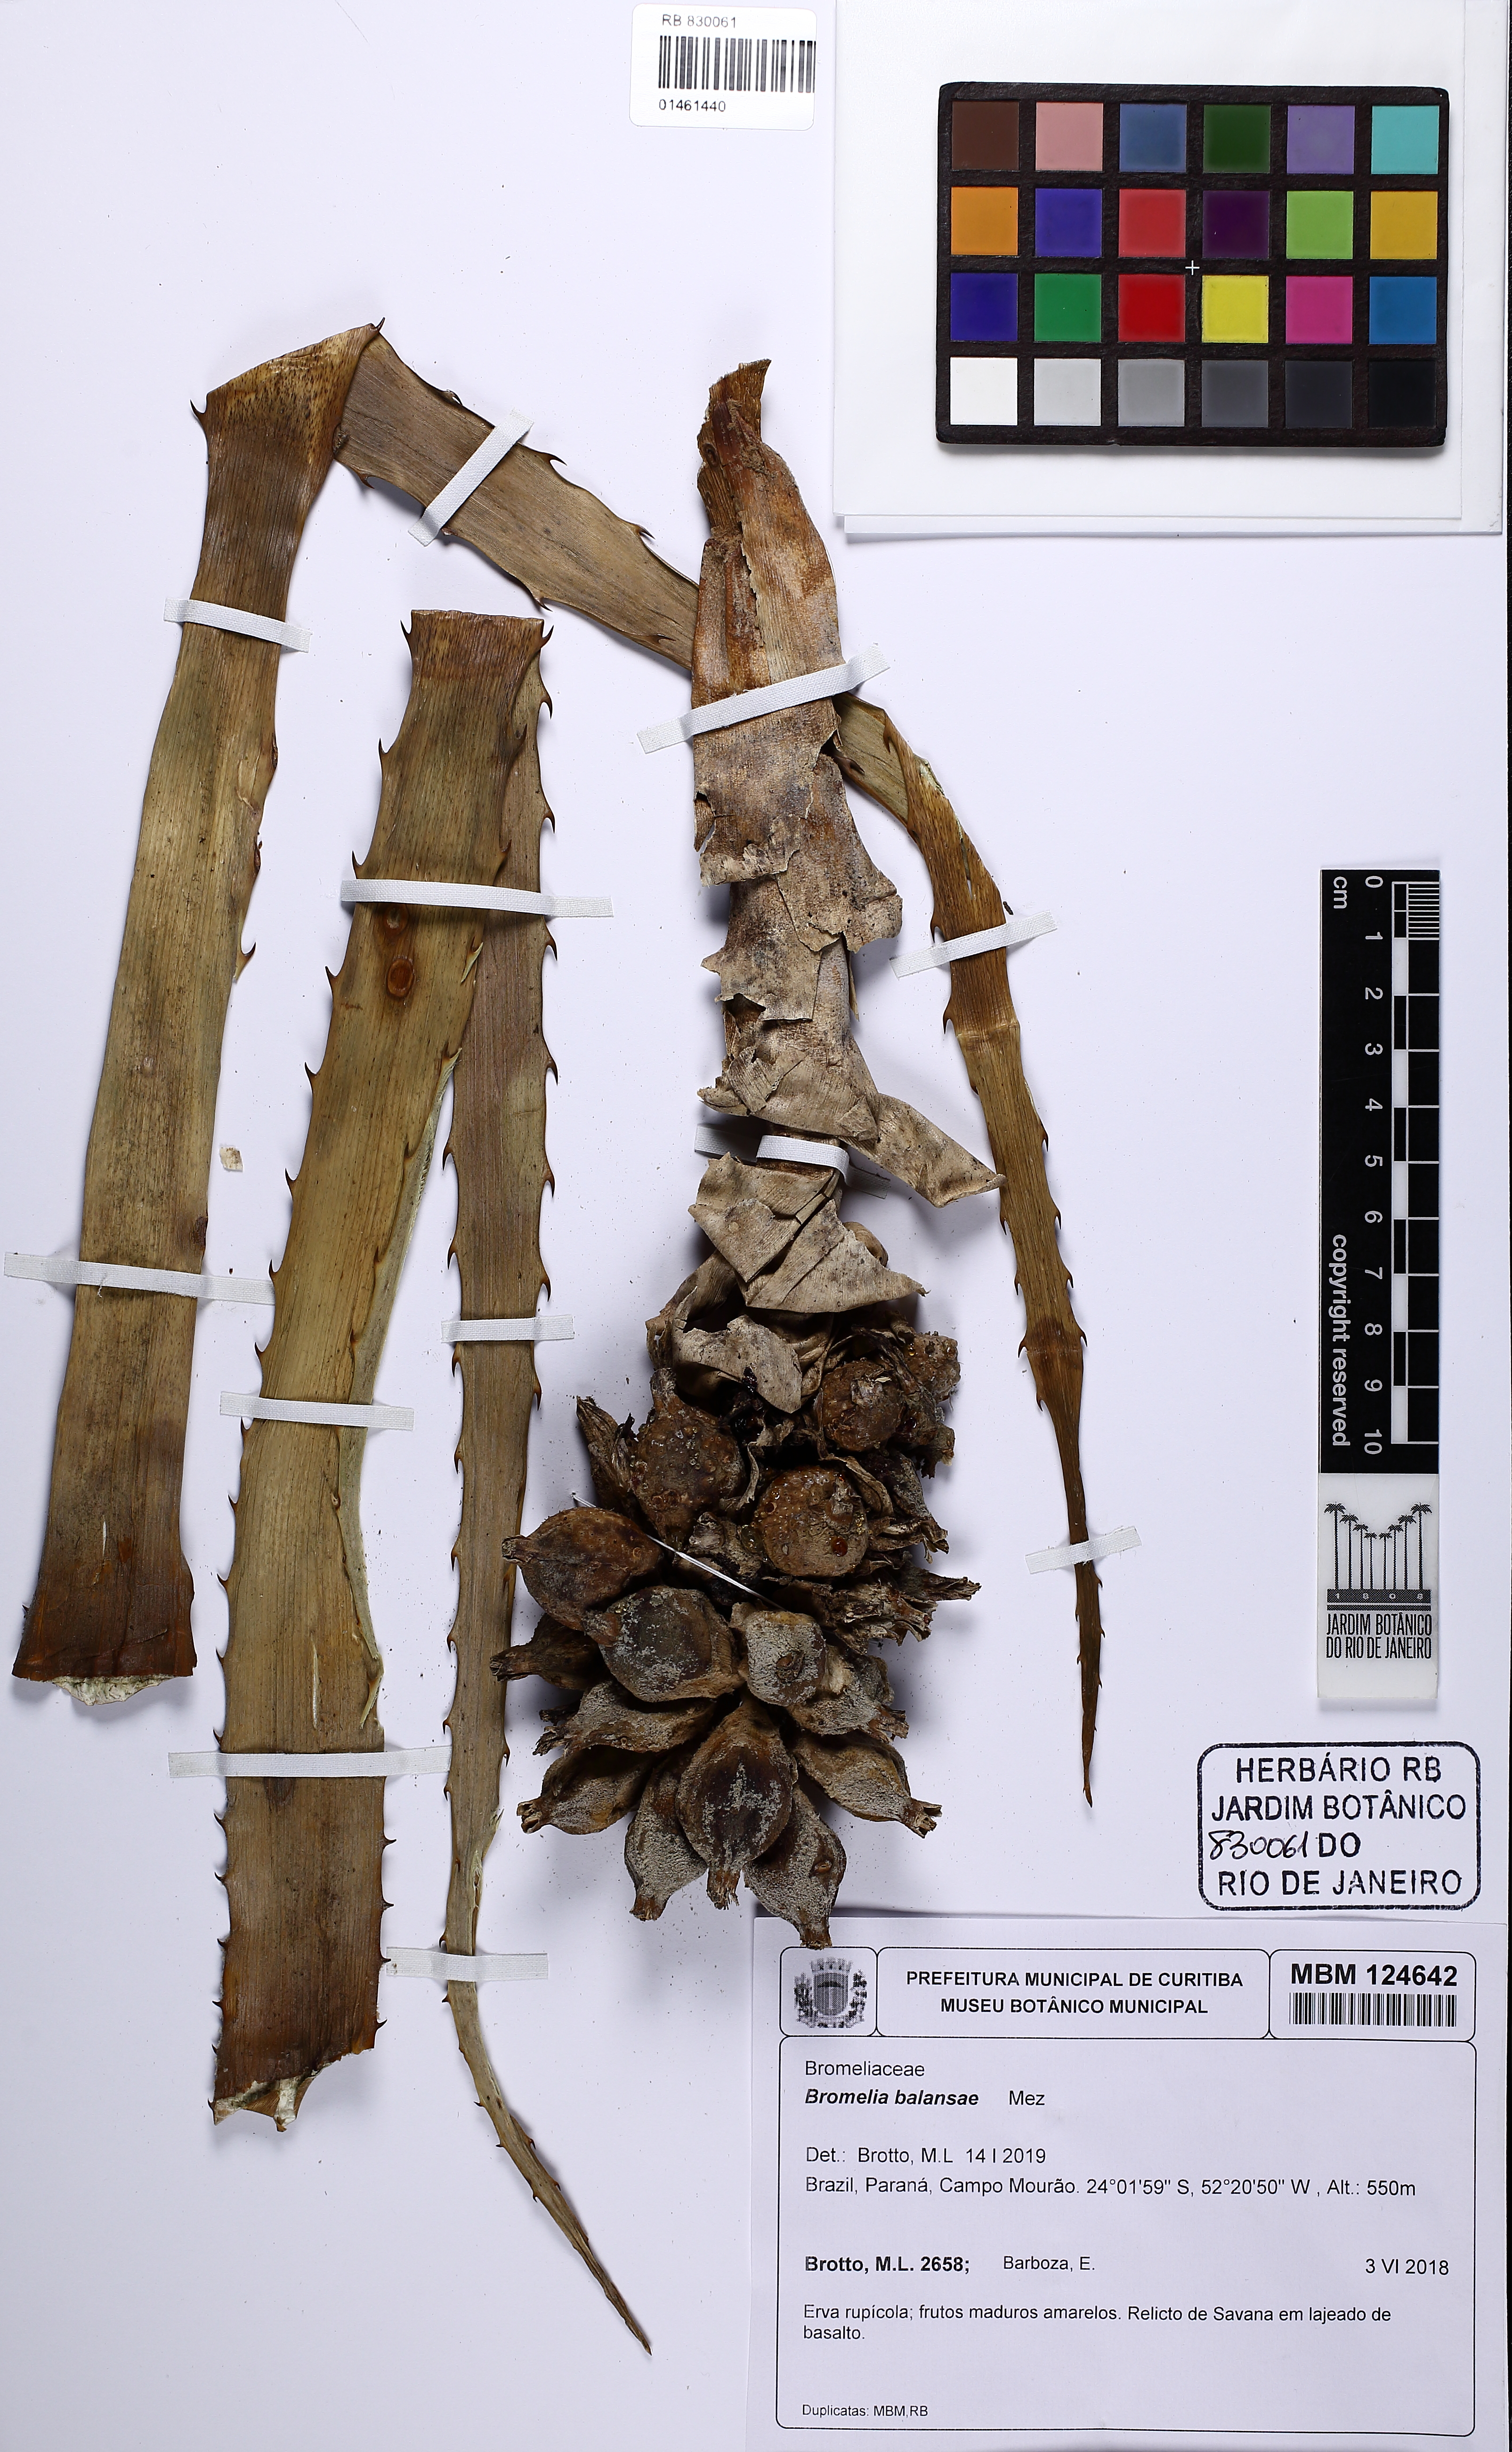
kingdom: Plantae
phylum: Tracheophyta
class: Liliopsida
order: Poales
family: Bromeliaceae
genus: Bromelia
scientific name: Bromelia balansae
